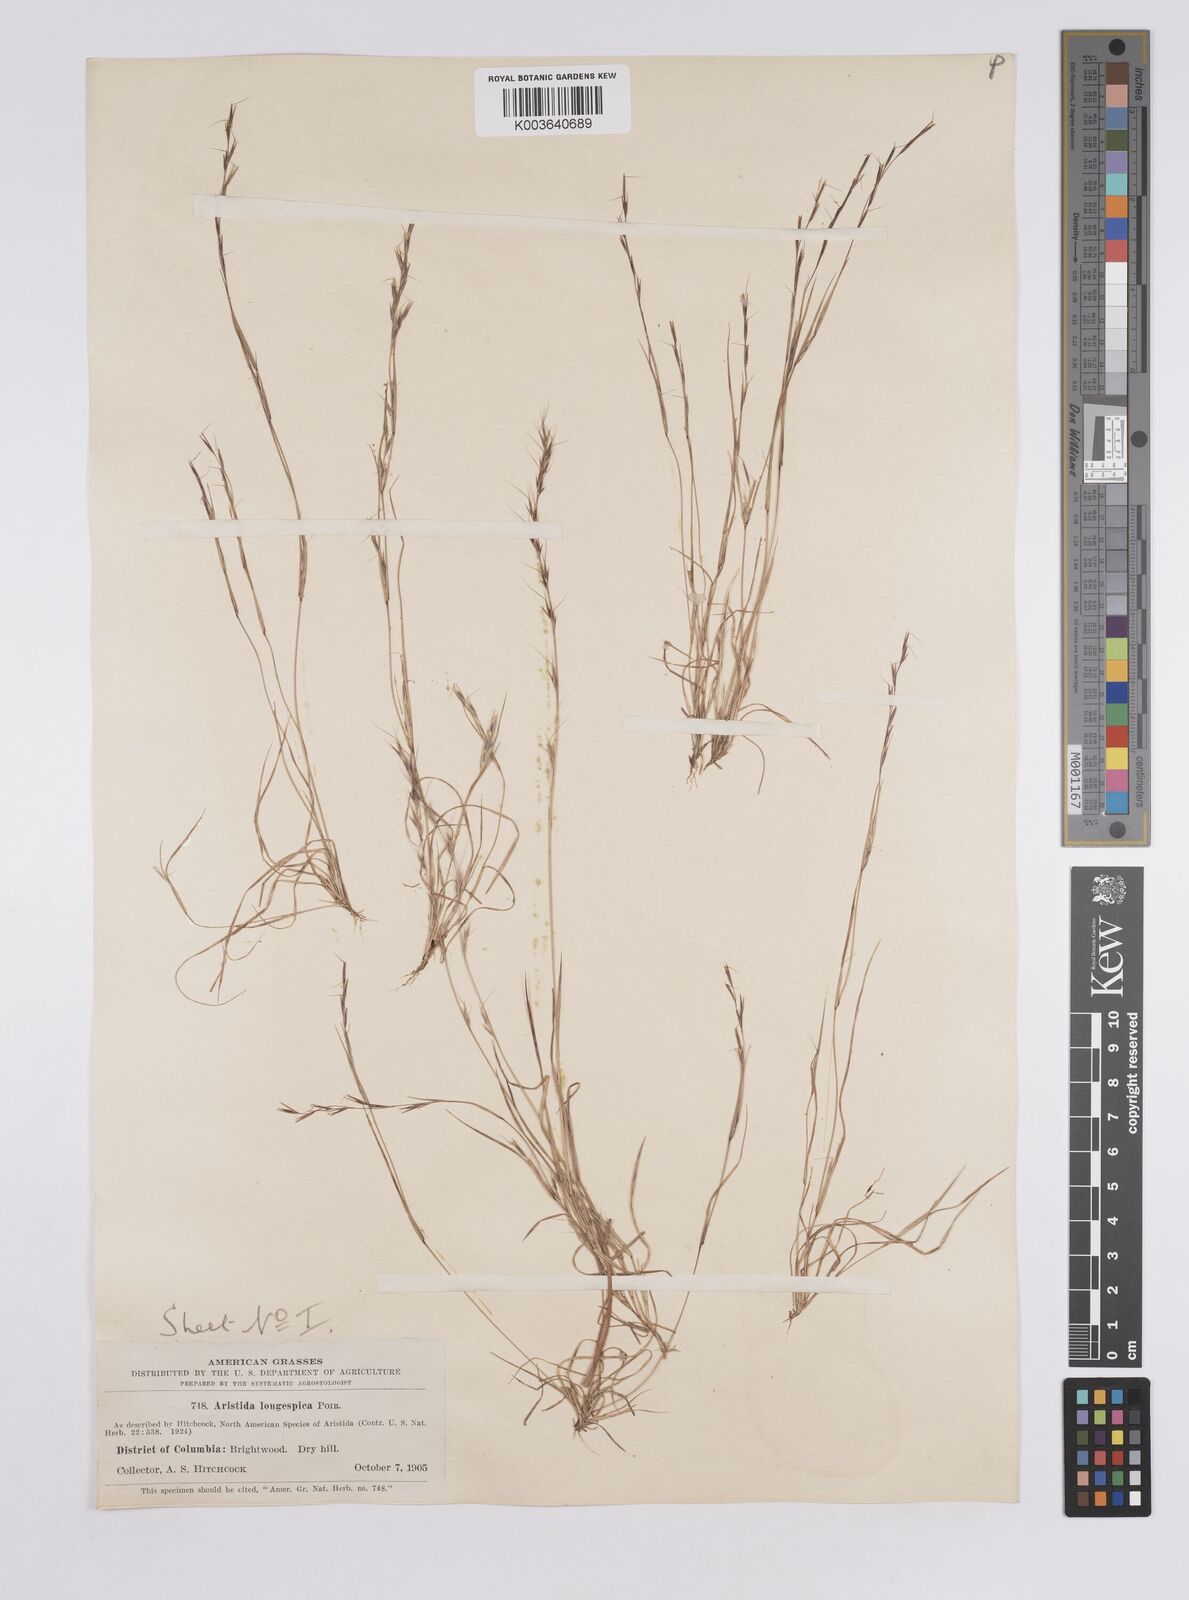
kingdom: Plantae
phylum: Tracheophyta
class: Liliopsida
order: Poales
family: Poaceae
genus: Aristida
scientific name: Aristida longespica
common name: Long-spiked triple-awned grass
